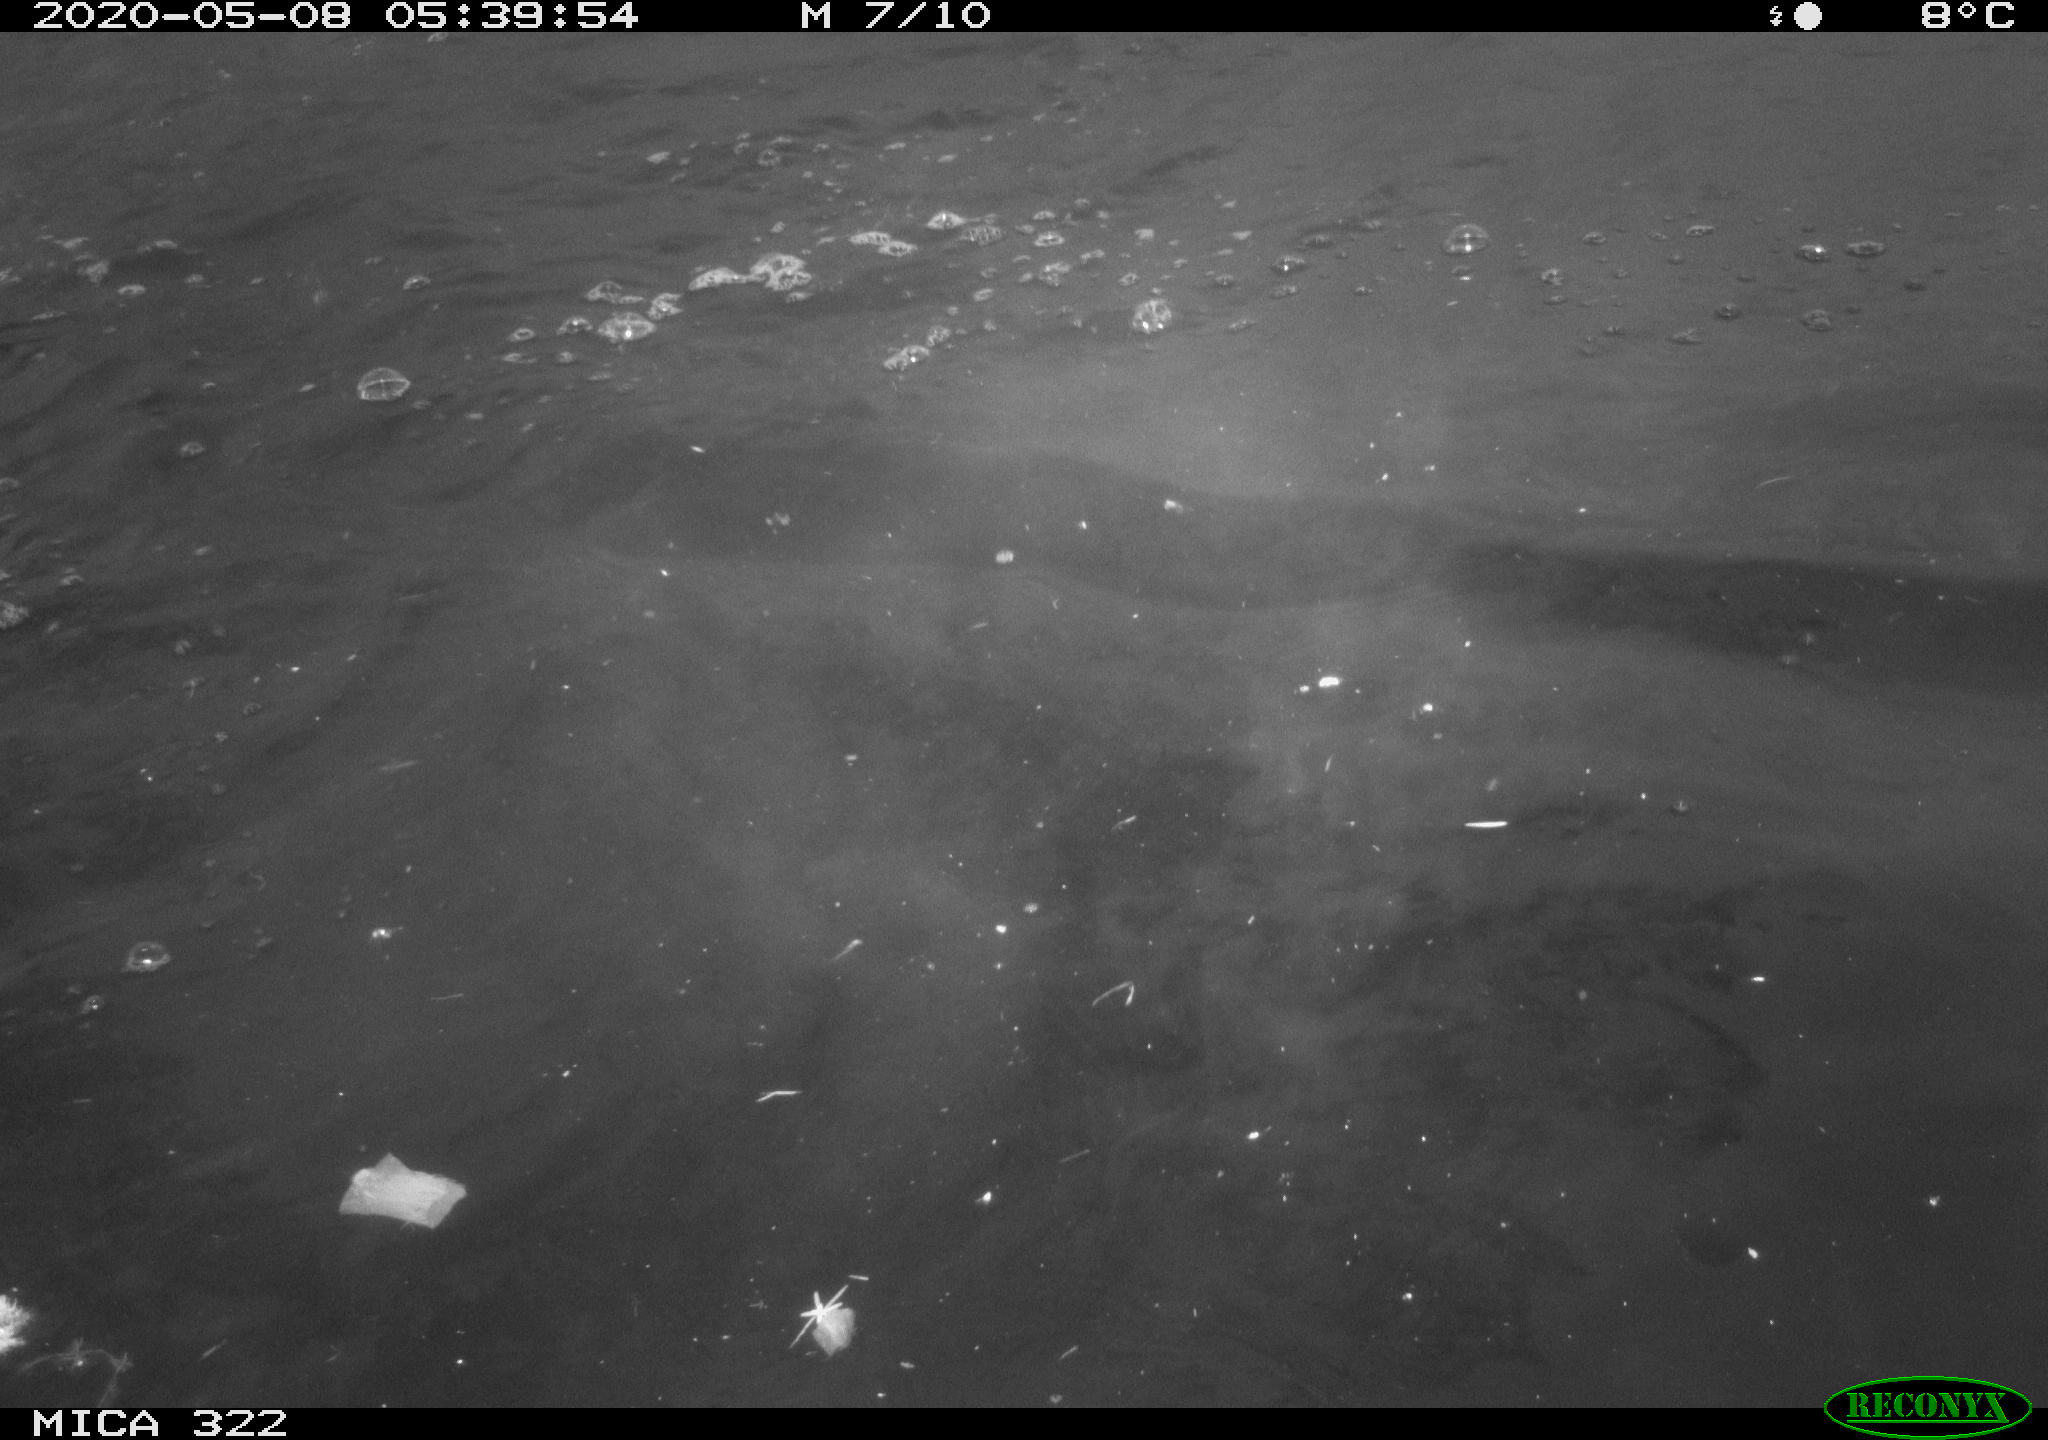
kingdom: Animalia
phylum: Chordata
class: Aves
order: Anseriformes
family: Anatidae
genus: Anas
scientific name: Anas platyrhynchos
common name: Mallard
